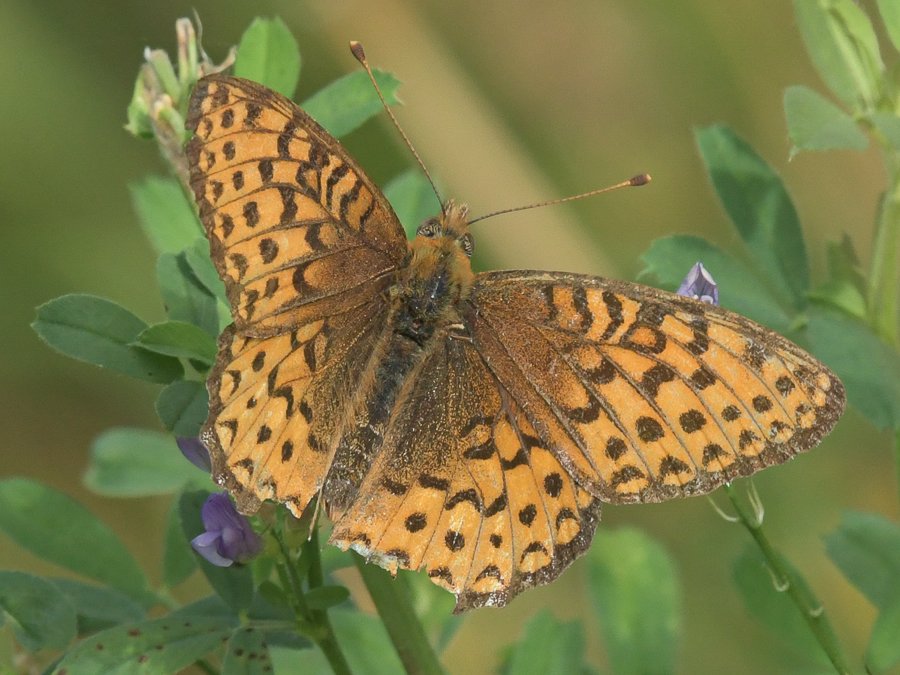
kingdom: Animalia
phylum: Arthropoda
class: Insecta
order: Lepidoptera
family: Nymphalidae
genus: Speyeria
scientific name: Speyeria atlantis
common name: Northwestern Fritillary
